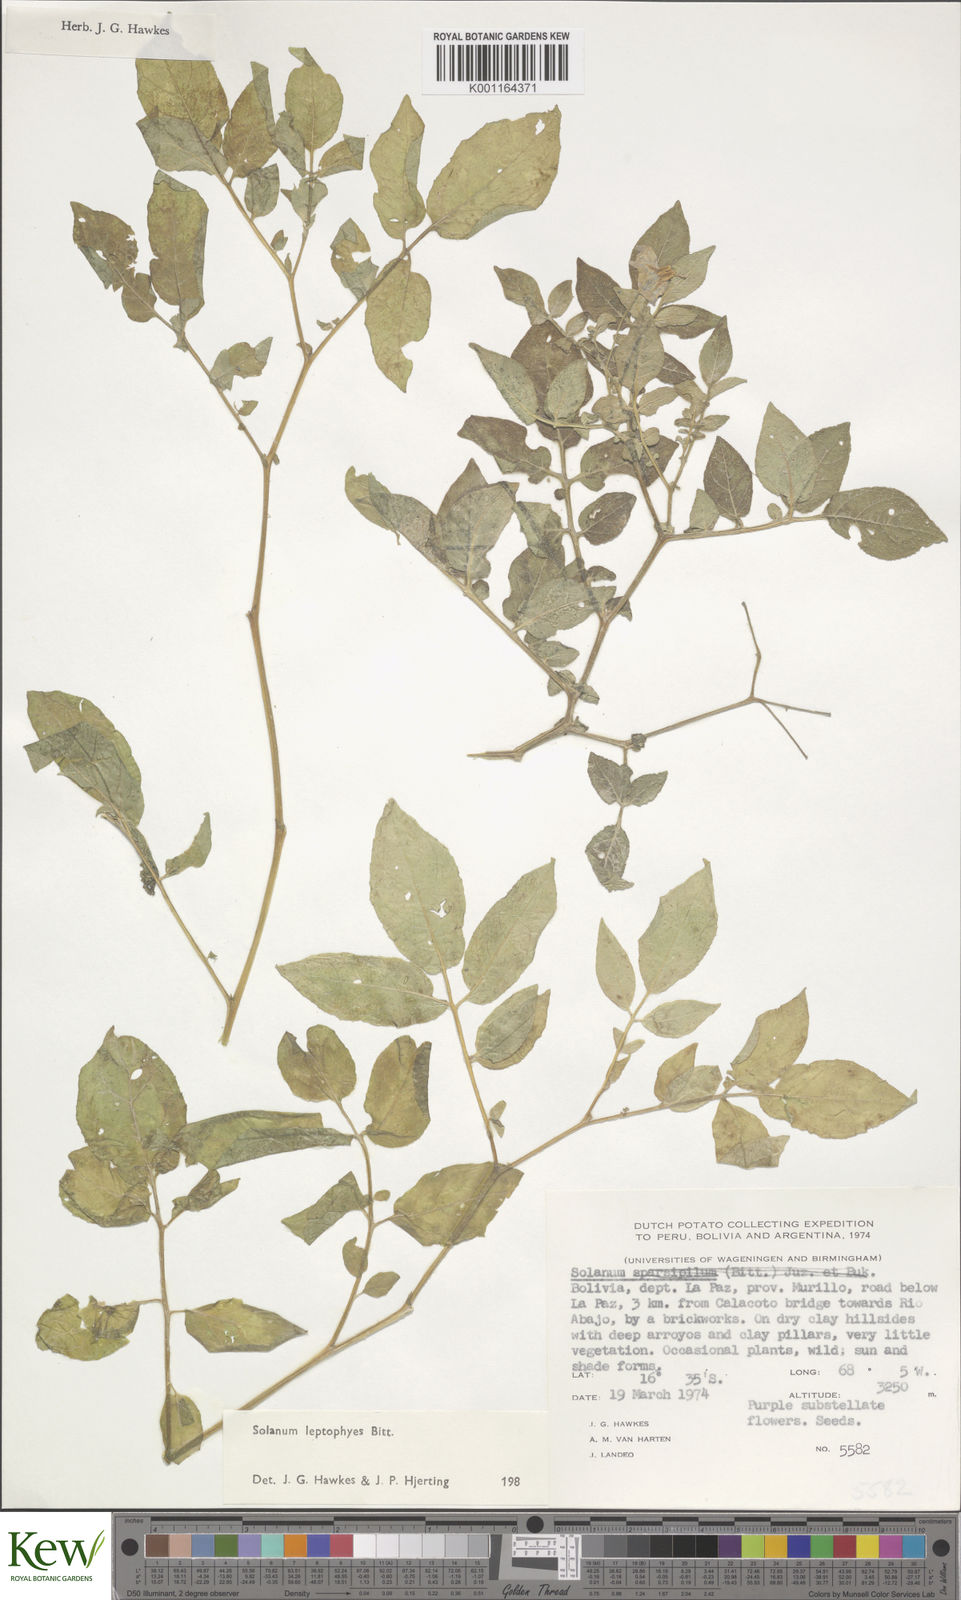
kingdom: Plantae
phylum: Tracheophyta
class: Magnoliopsida
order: Solanales
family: Solanaceae
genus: Solanum
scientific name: Solanum brevicaule
